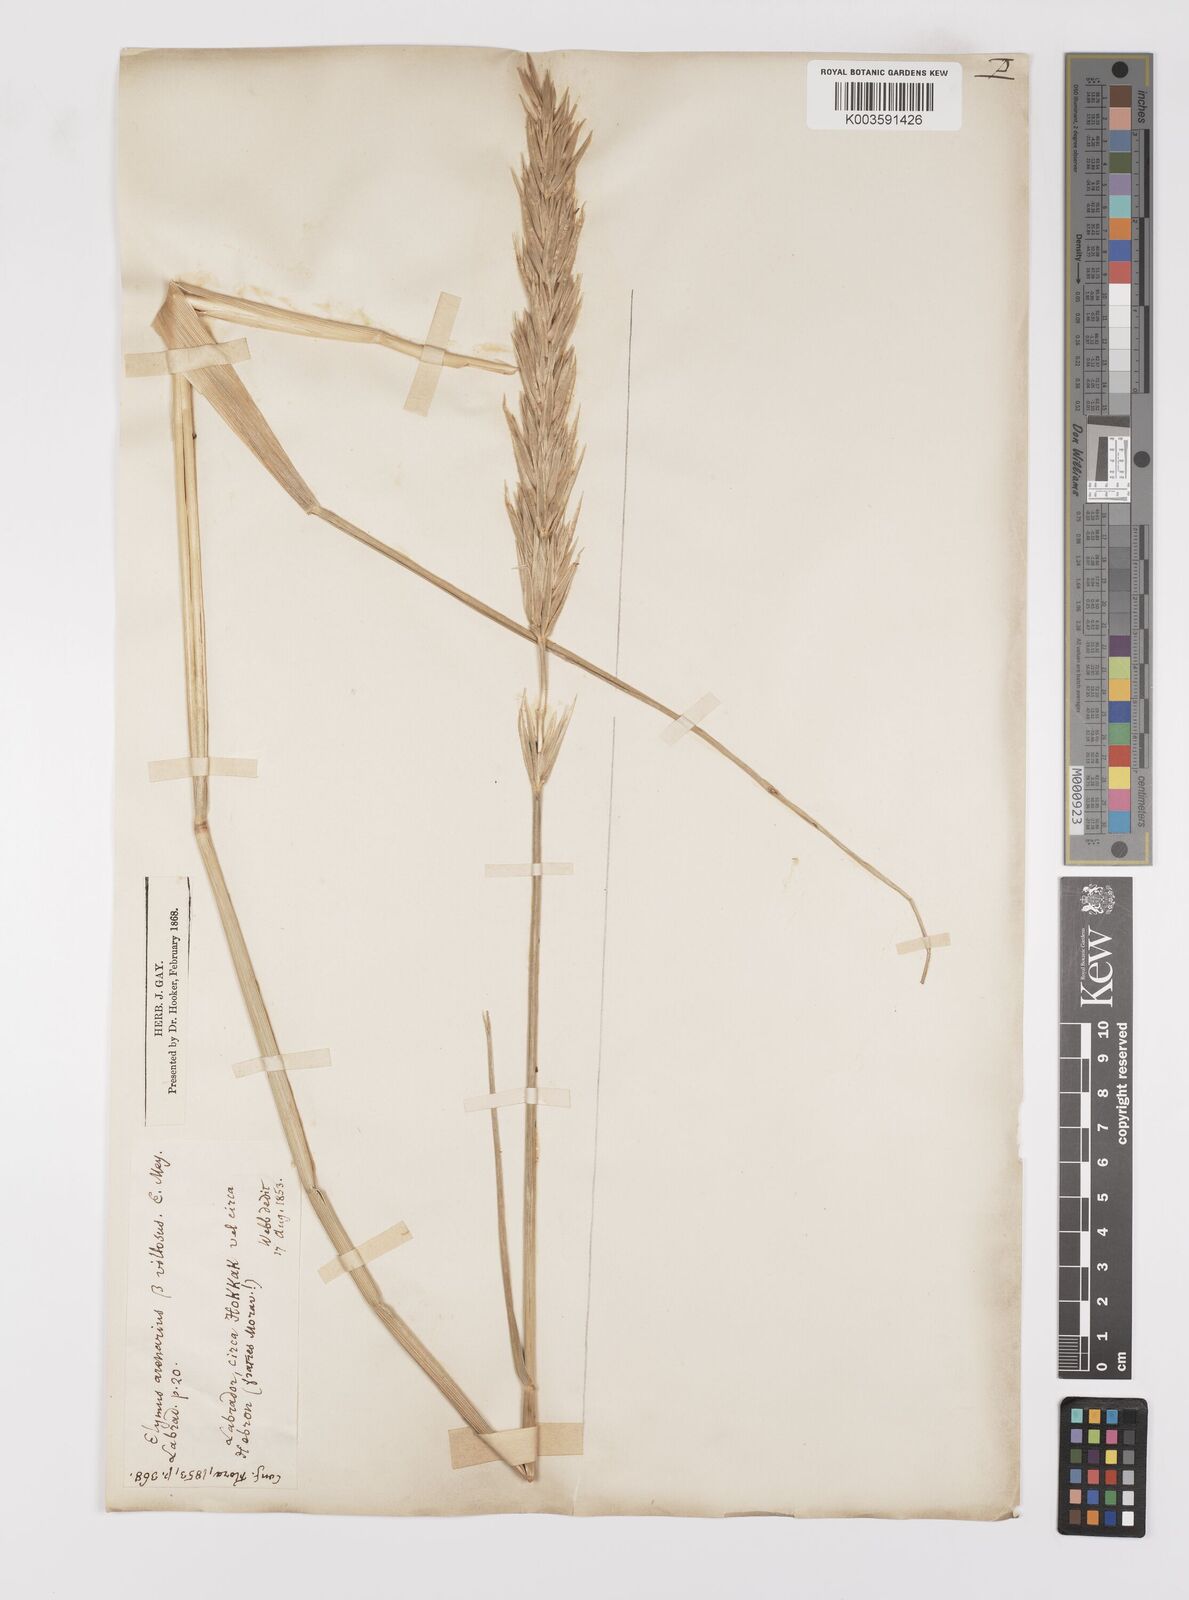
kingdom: Plantae
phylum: Tracheophyta
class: Liliopsida
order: Poales
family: Poaceae
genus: Leymus
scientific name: Leymus mollis
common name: American dune grass
